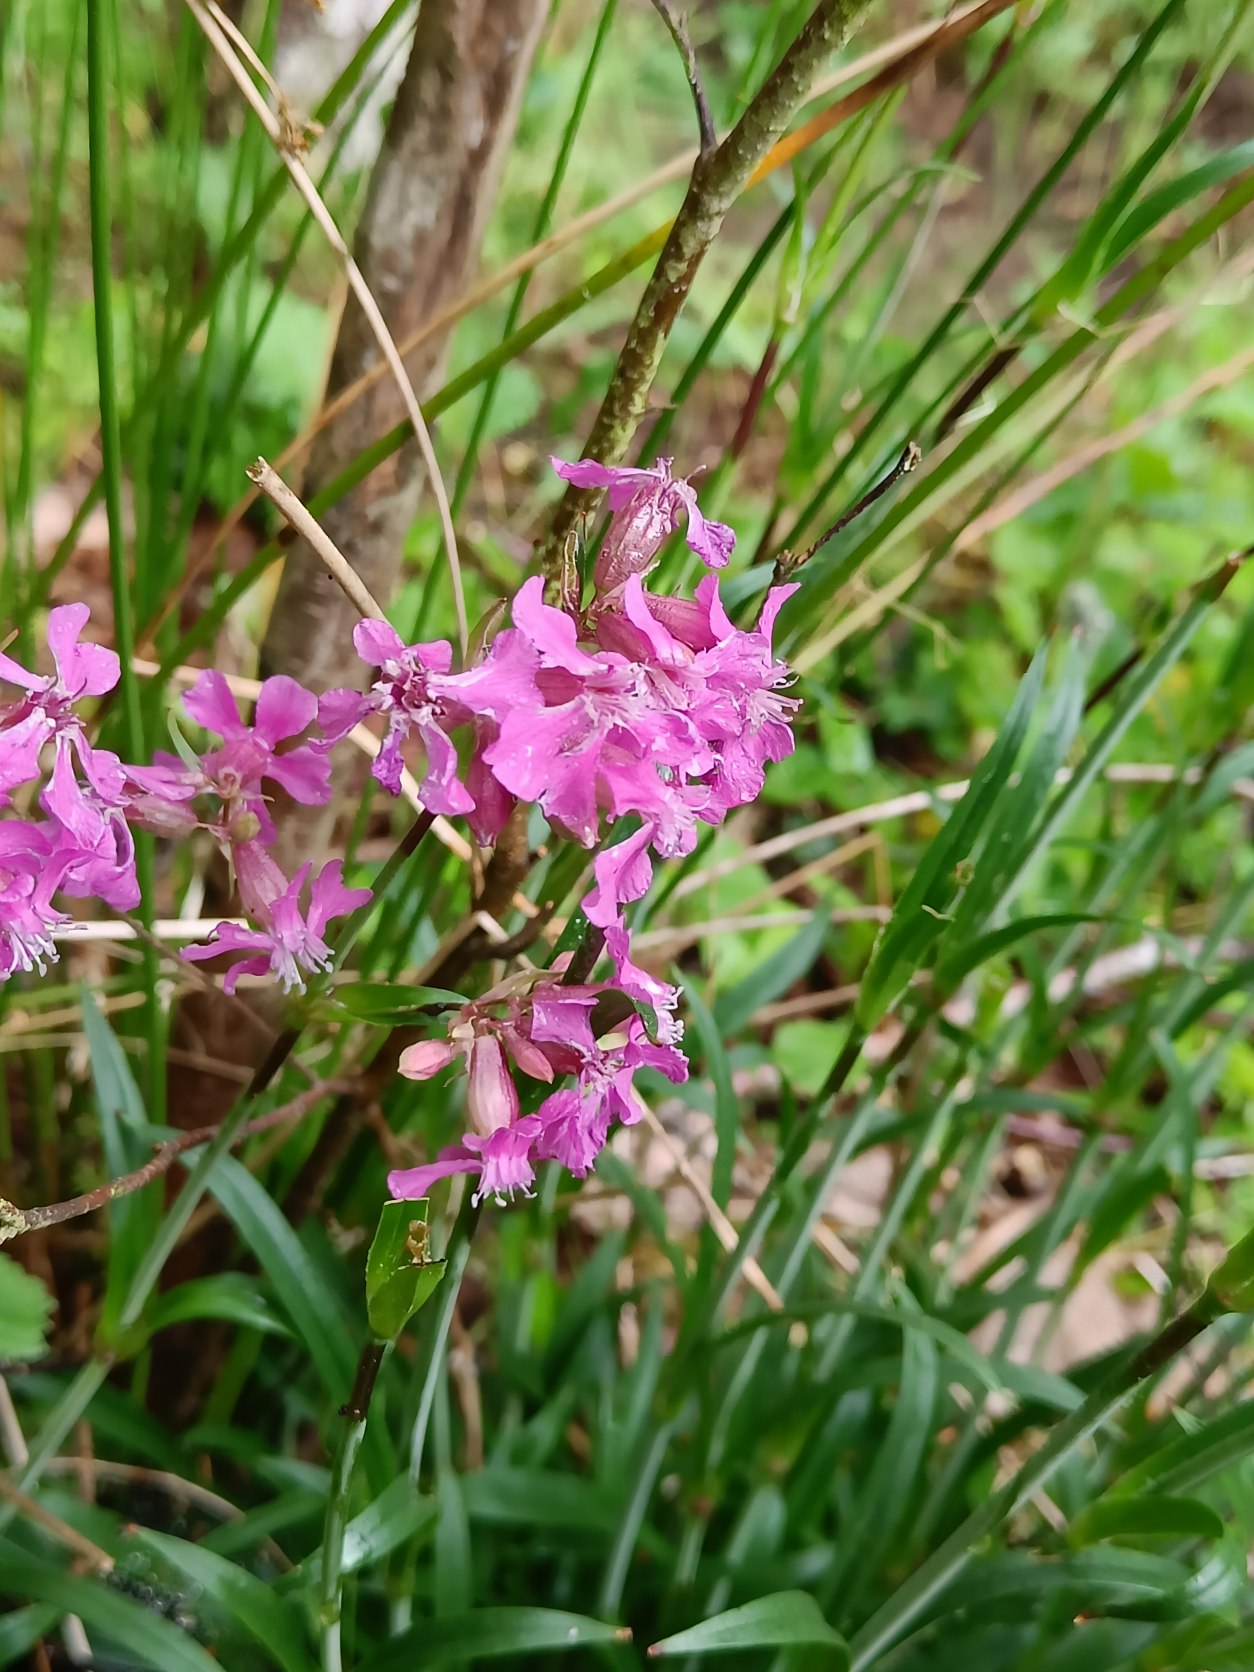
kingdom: Plantae
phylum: Tracheophyta
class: Magnoliopsida
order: Caryophyllales
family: Caryophyllaceae
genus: Viscaria
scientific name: Viscaria vulgaris
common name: Tjærenellike
